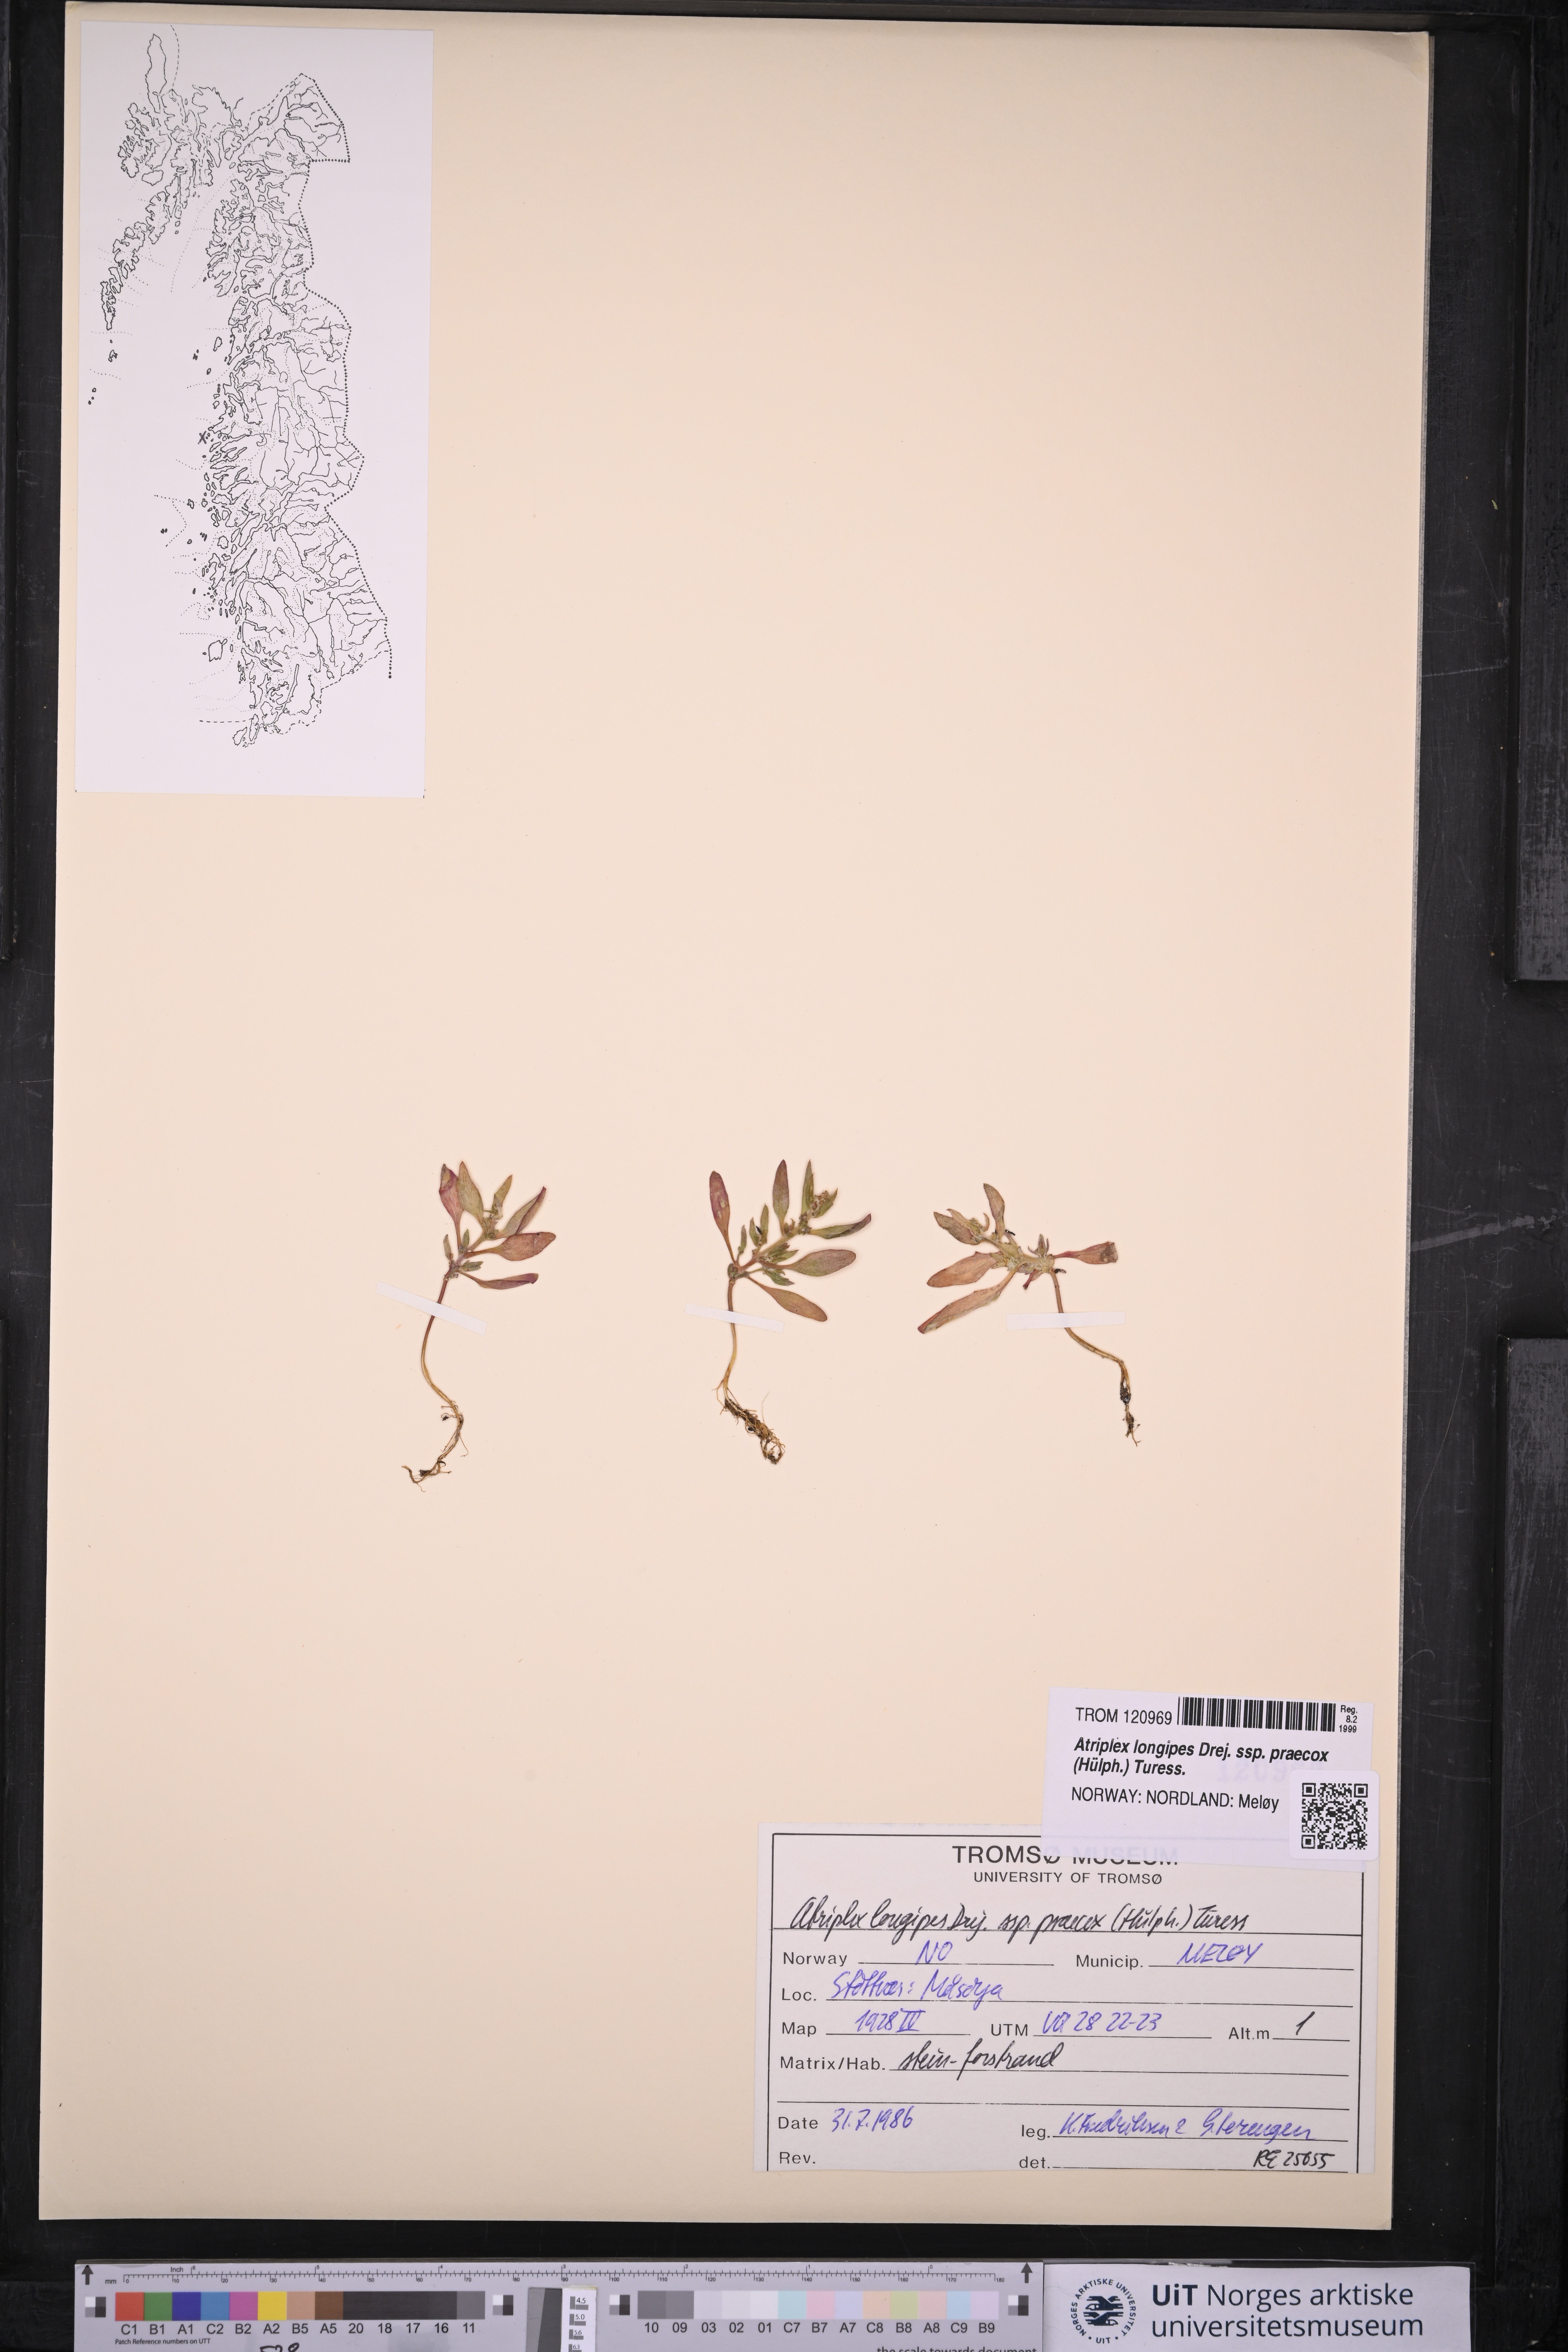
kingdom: Plantae
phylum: Tracheophyta
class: Magnoliopsida
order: Caryophyllales
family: Amaranthaceae
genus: Atriplex
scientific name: Atriplex praecox
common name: Early orache
